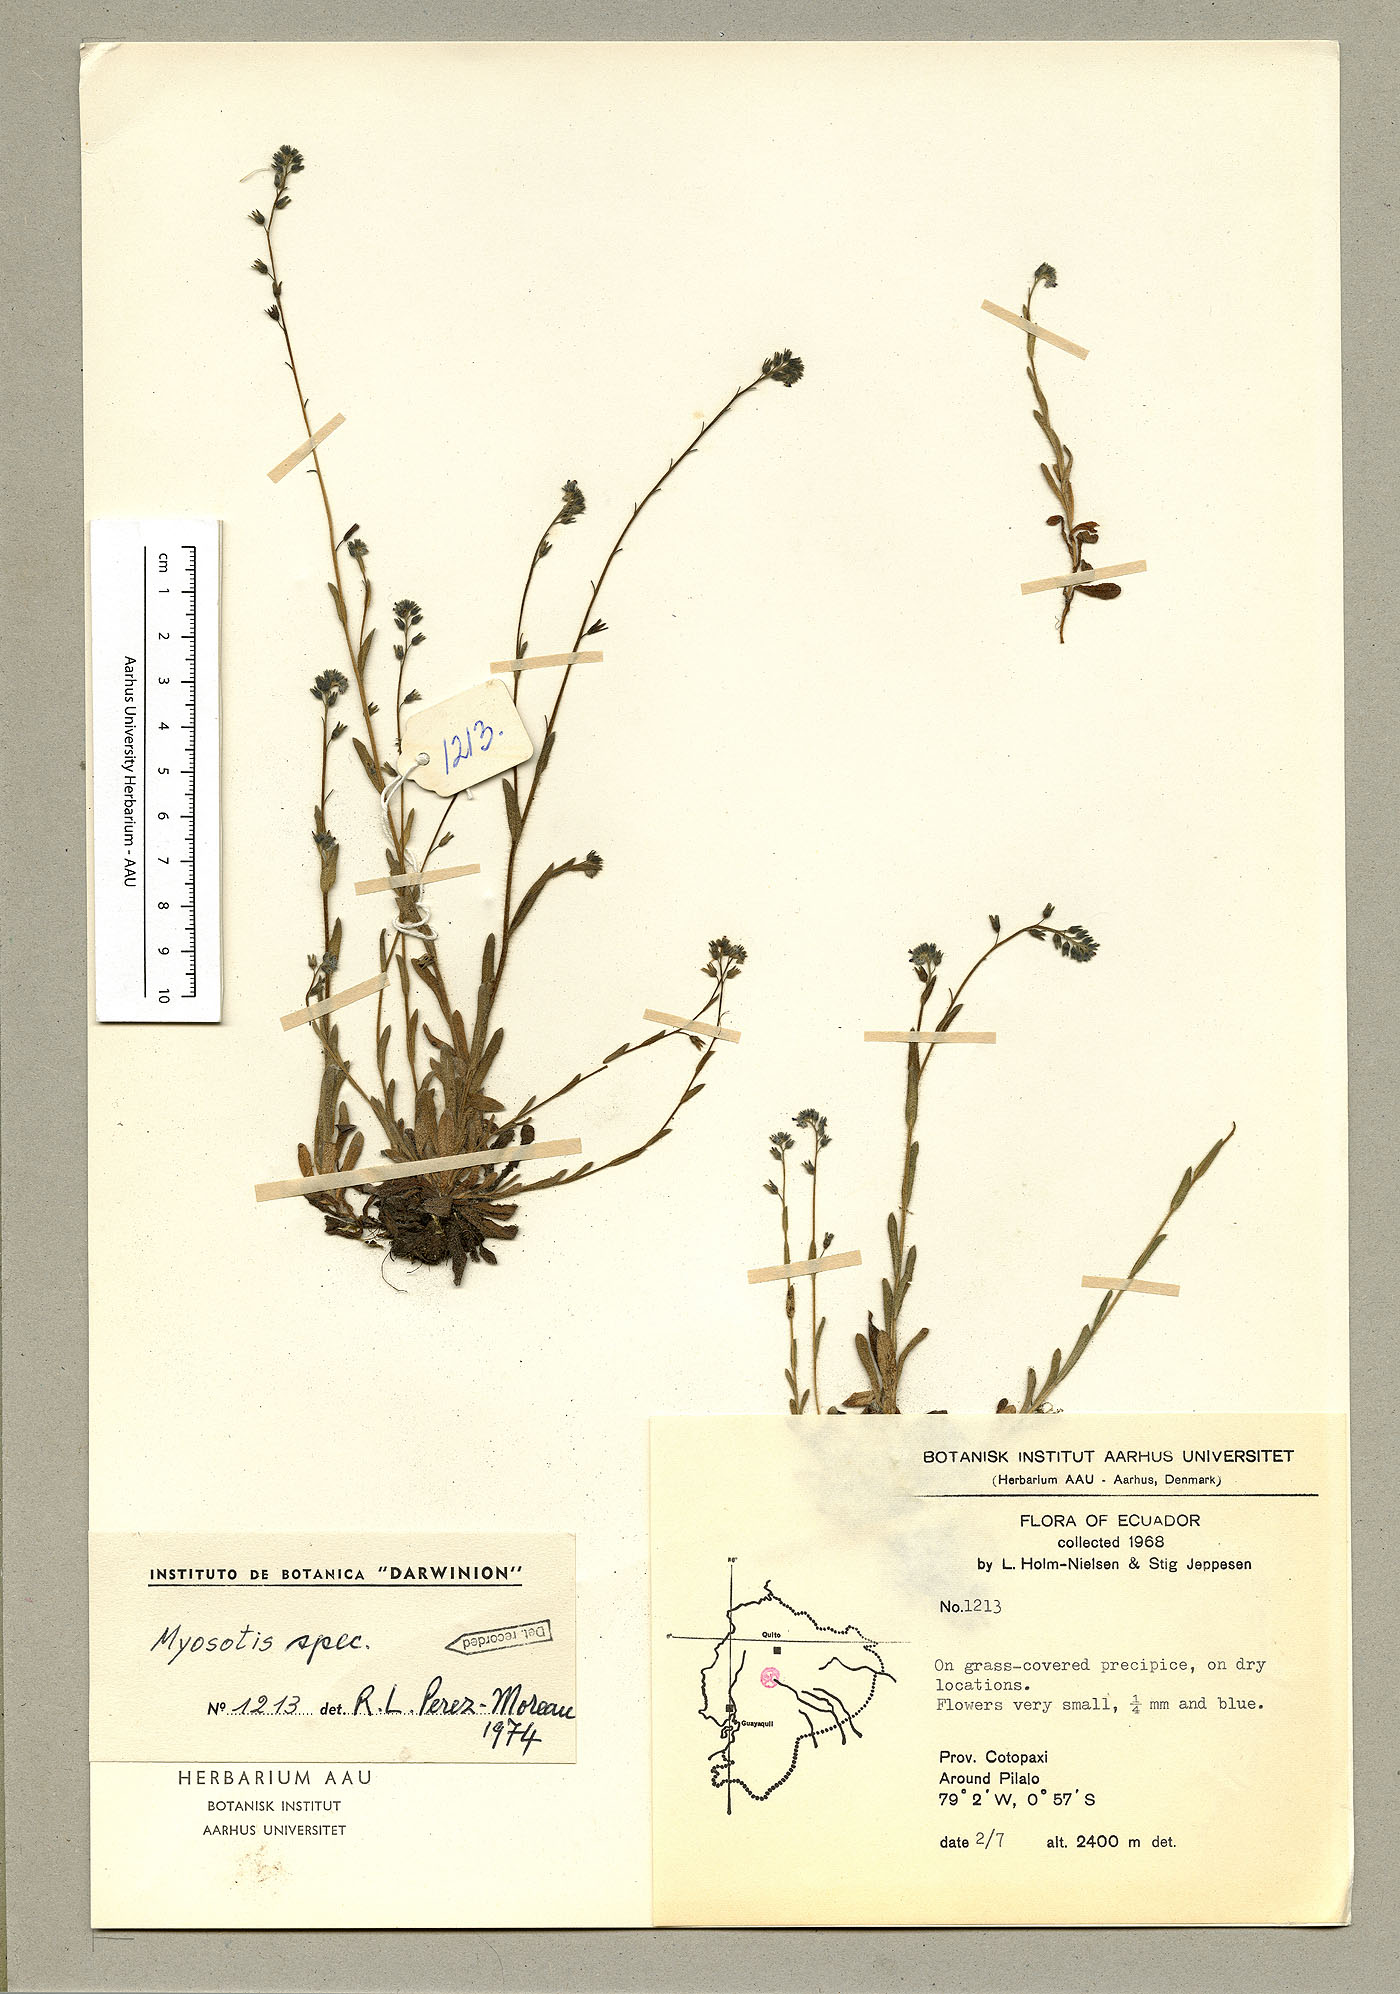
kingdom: Plantae
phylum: Tracheophyta
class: Magnoliopsida
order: Boraginales
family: Boraginaceae
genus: Myosotis
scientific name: Myosotis discolor
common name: Changing forget-me-not
